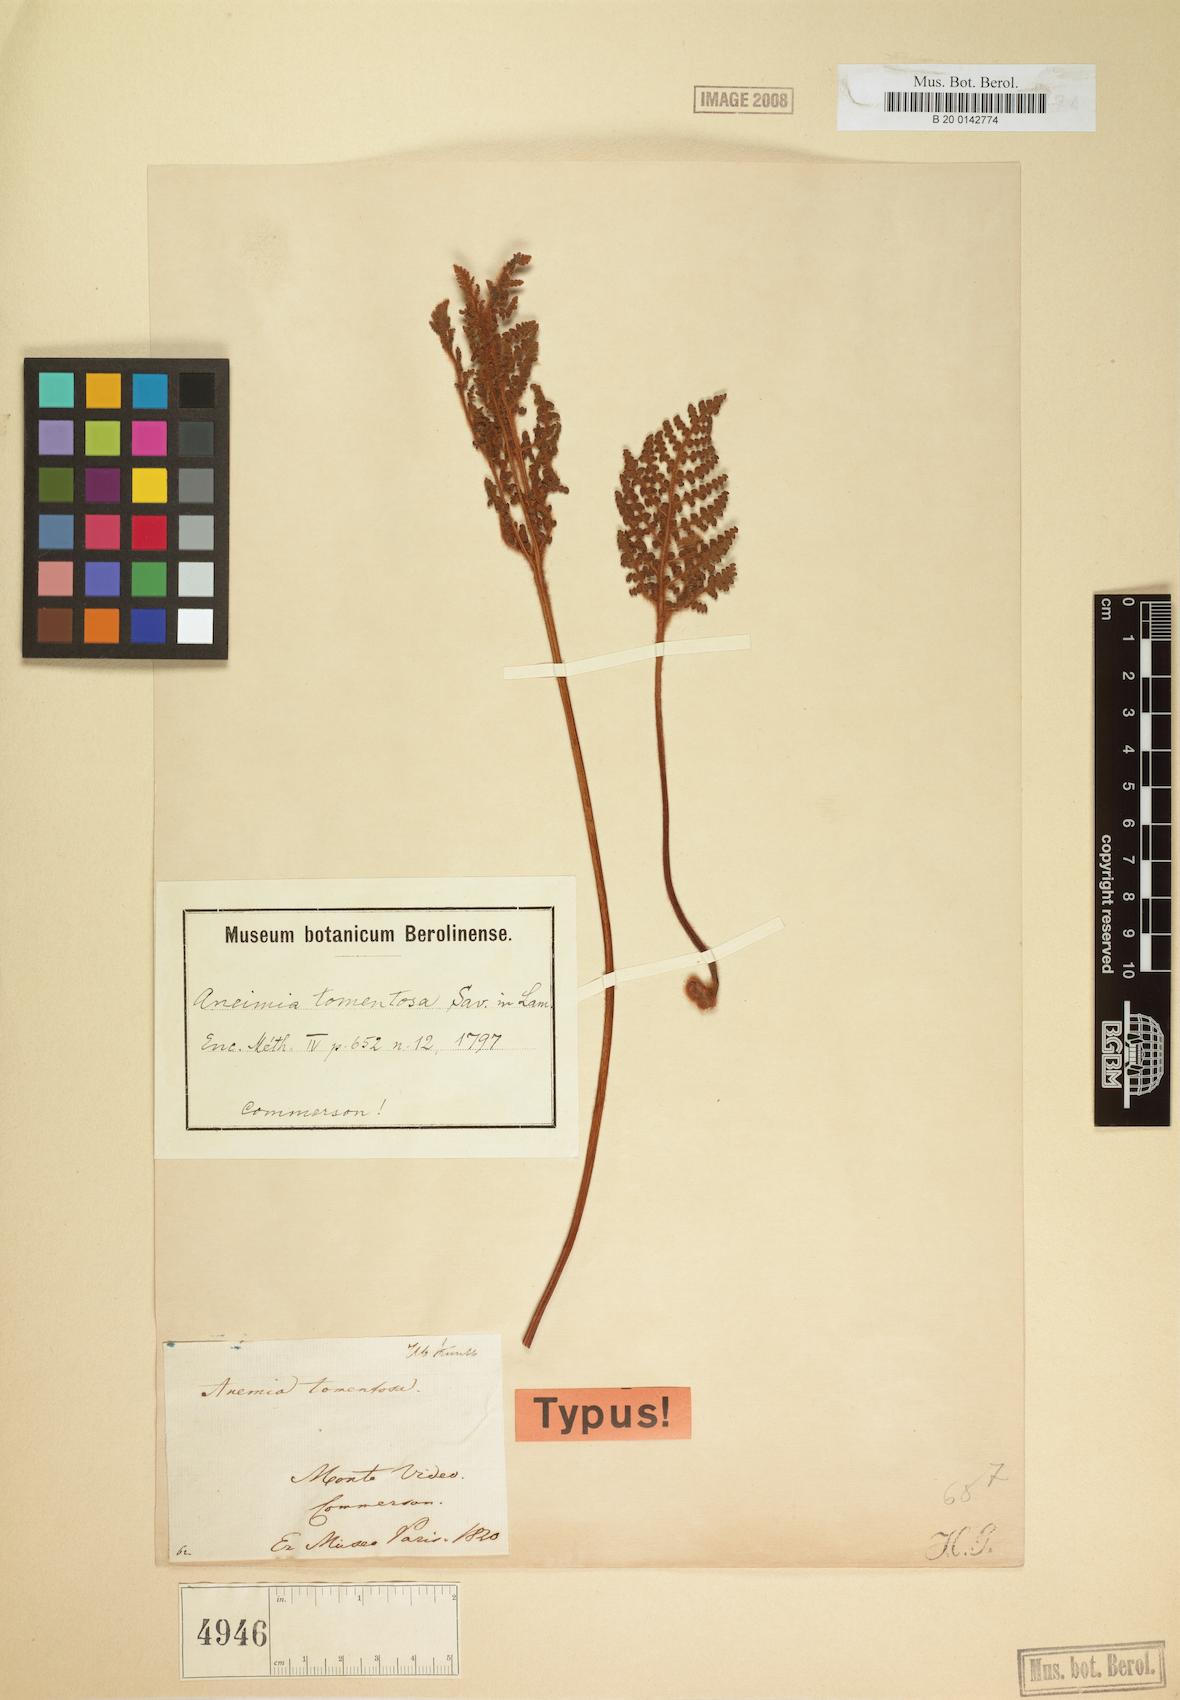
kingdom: Plantae
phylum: Tracheophyta
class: Polypodiopsida
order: Schizaeales
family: Anemiaceae
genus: Anemia
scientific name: Anemia tomentosa
